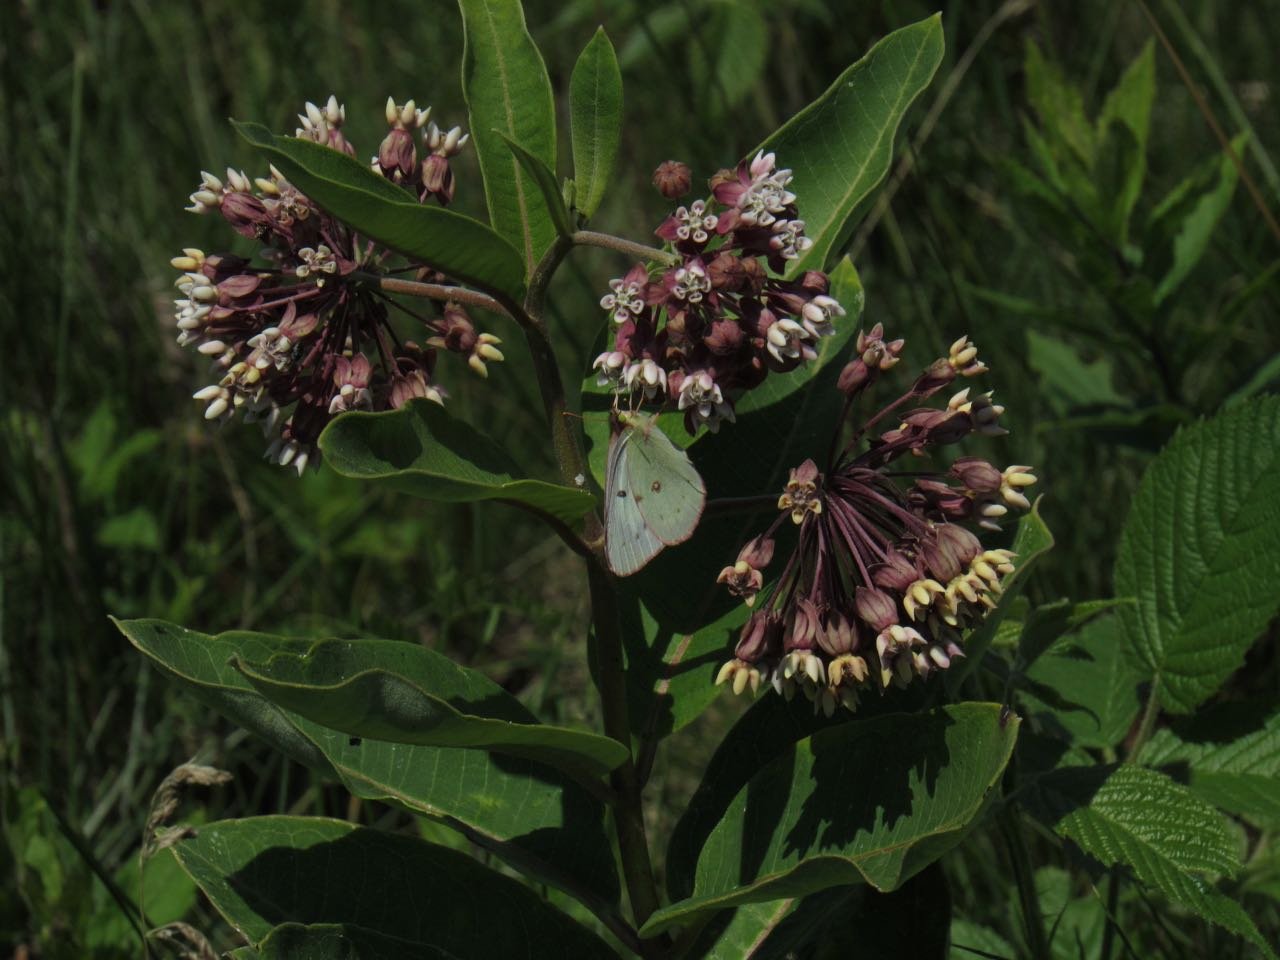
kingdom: Animalia
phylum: Arthropoda
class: Insecta
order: Lepidoptera
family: Pieridae
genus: Colias
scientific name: Colias philodice
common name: Clouded Sulphur
